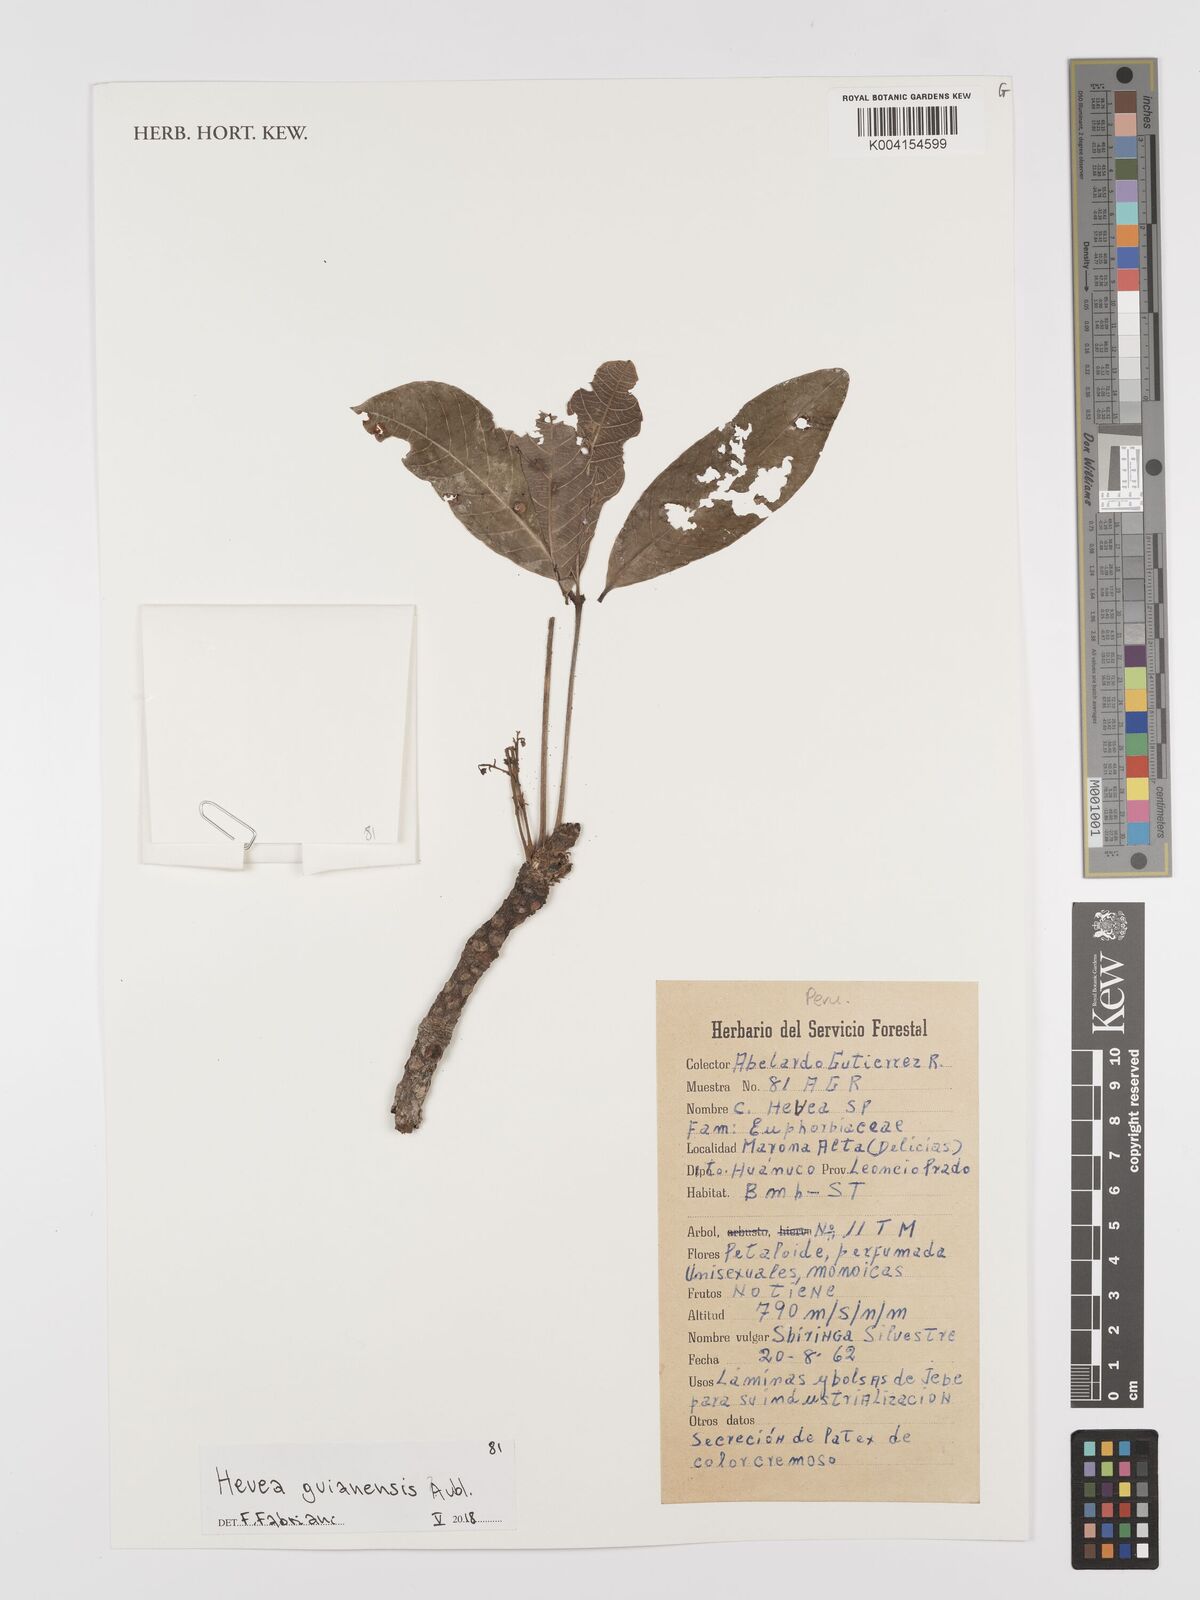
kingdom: Plantae
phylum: Tracheophyta
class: Magnoliopsida
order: Malpighiales
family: Euphorbiaceae
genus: Hevea
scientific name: Hevea guianensis
